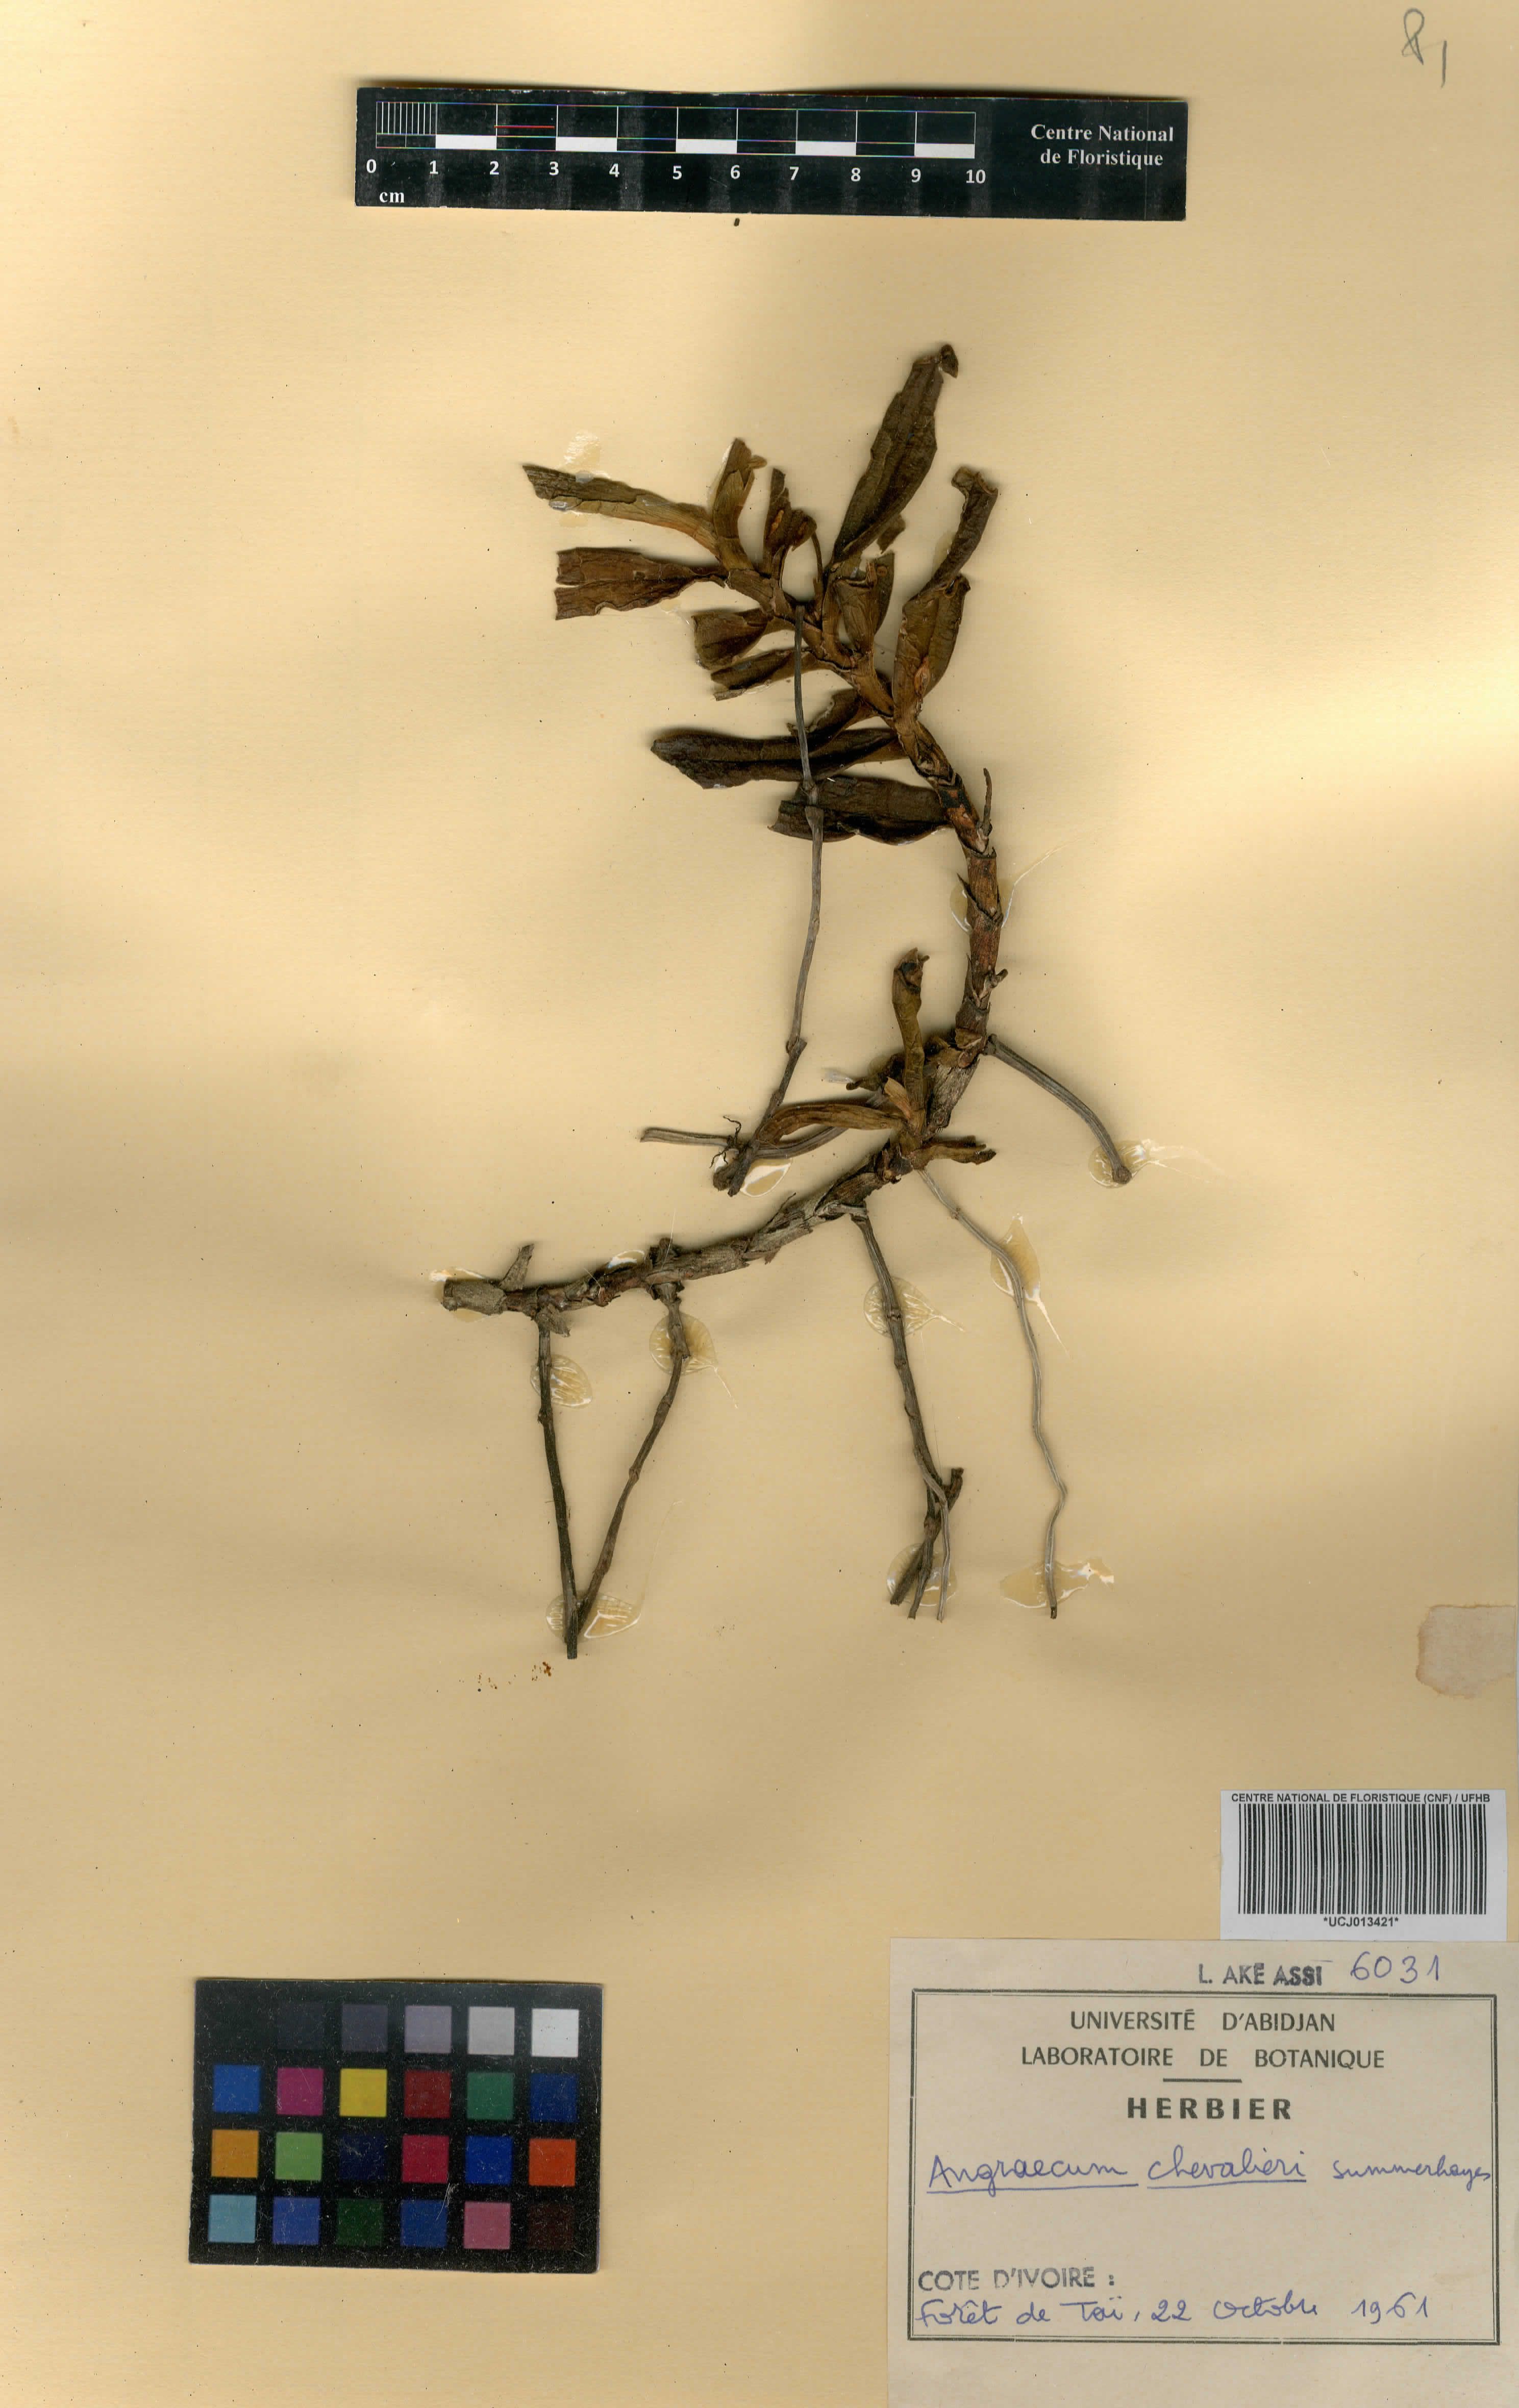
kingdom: Plantae
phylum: Tracheophyta
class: Liliopsida
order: Asparagales
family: Orchidaceae
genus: Angraecum
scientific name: Angraecum moandense
